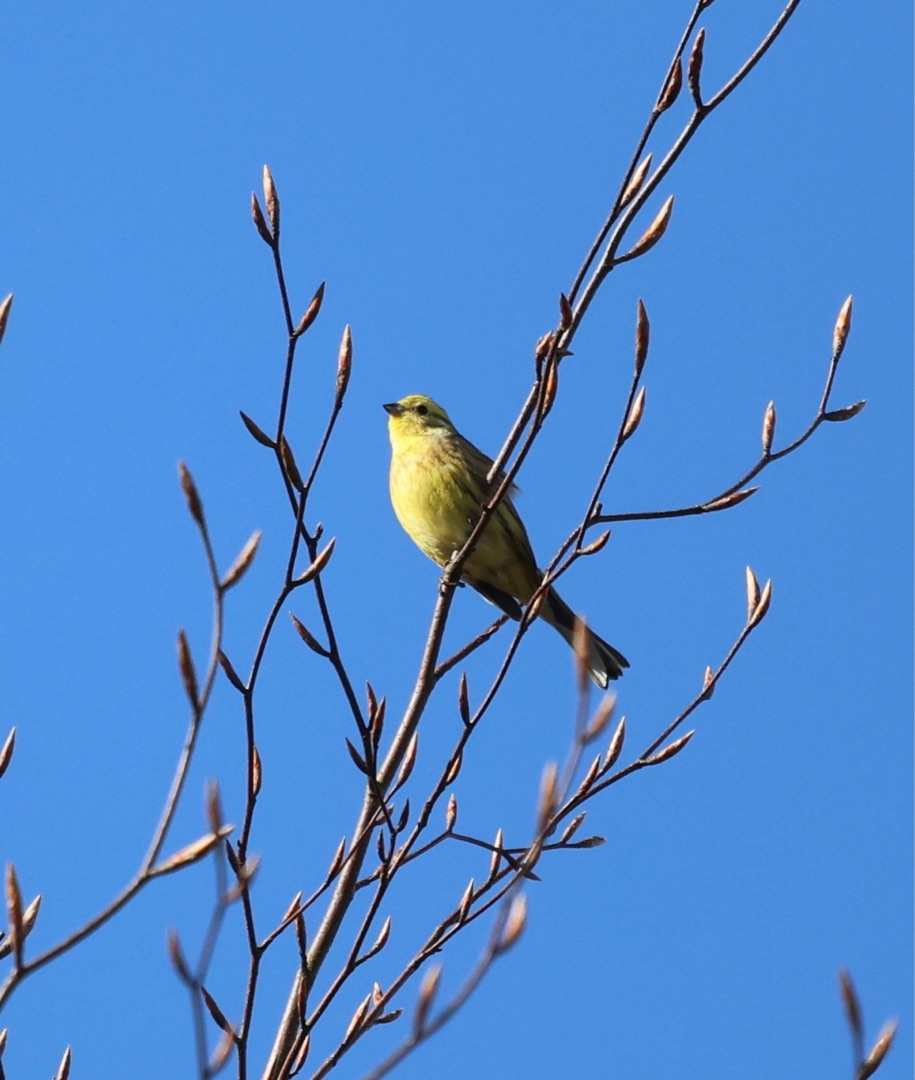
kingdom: Animalia
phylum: Chordata
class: Aves
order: Passeriformes
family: Emberizidae
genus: Emberiza
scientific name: Emberiza citrinella
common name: Gulspurv
